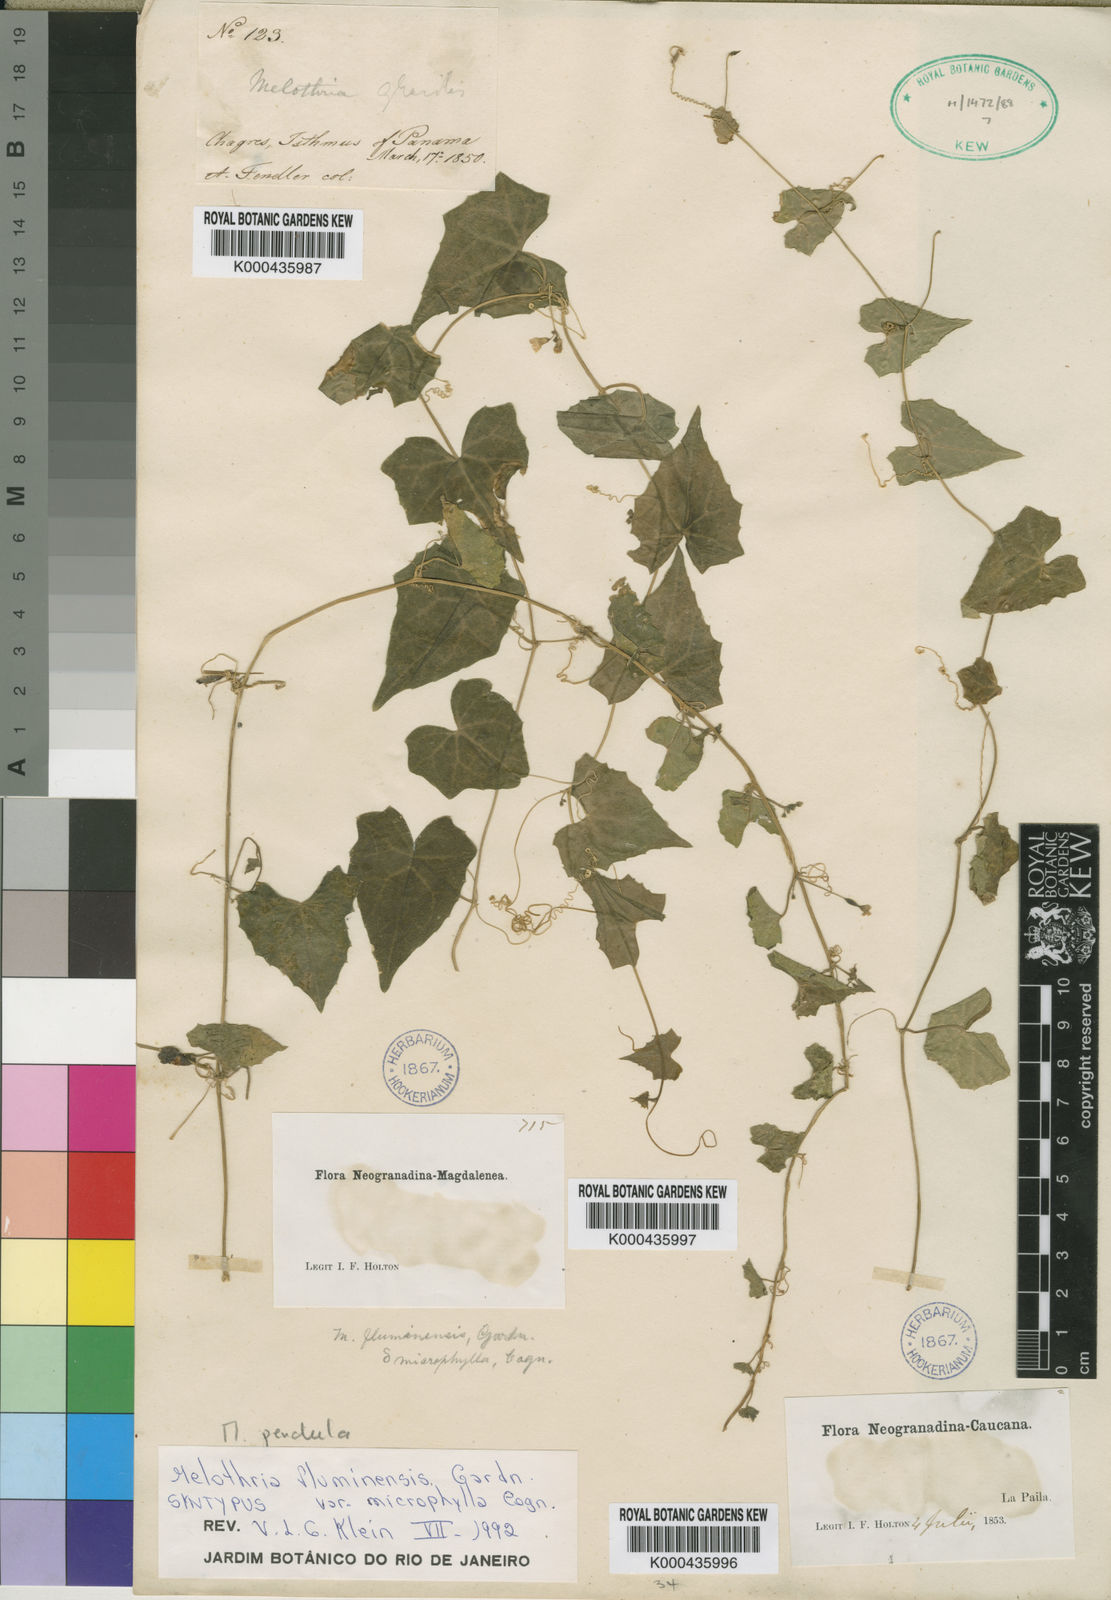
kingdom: Plantae
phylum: Tracheophyta
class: Magnoliopsida
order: Cucurbitales
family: Cucurbitaceae
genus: Melothria
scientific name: Melothria pendula
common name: Creeping-cucumber
